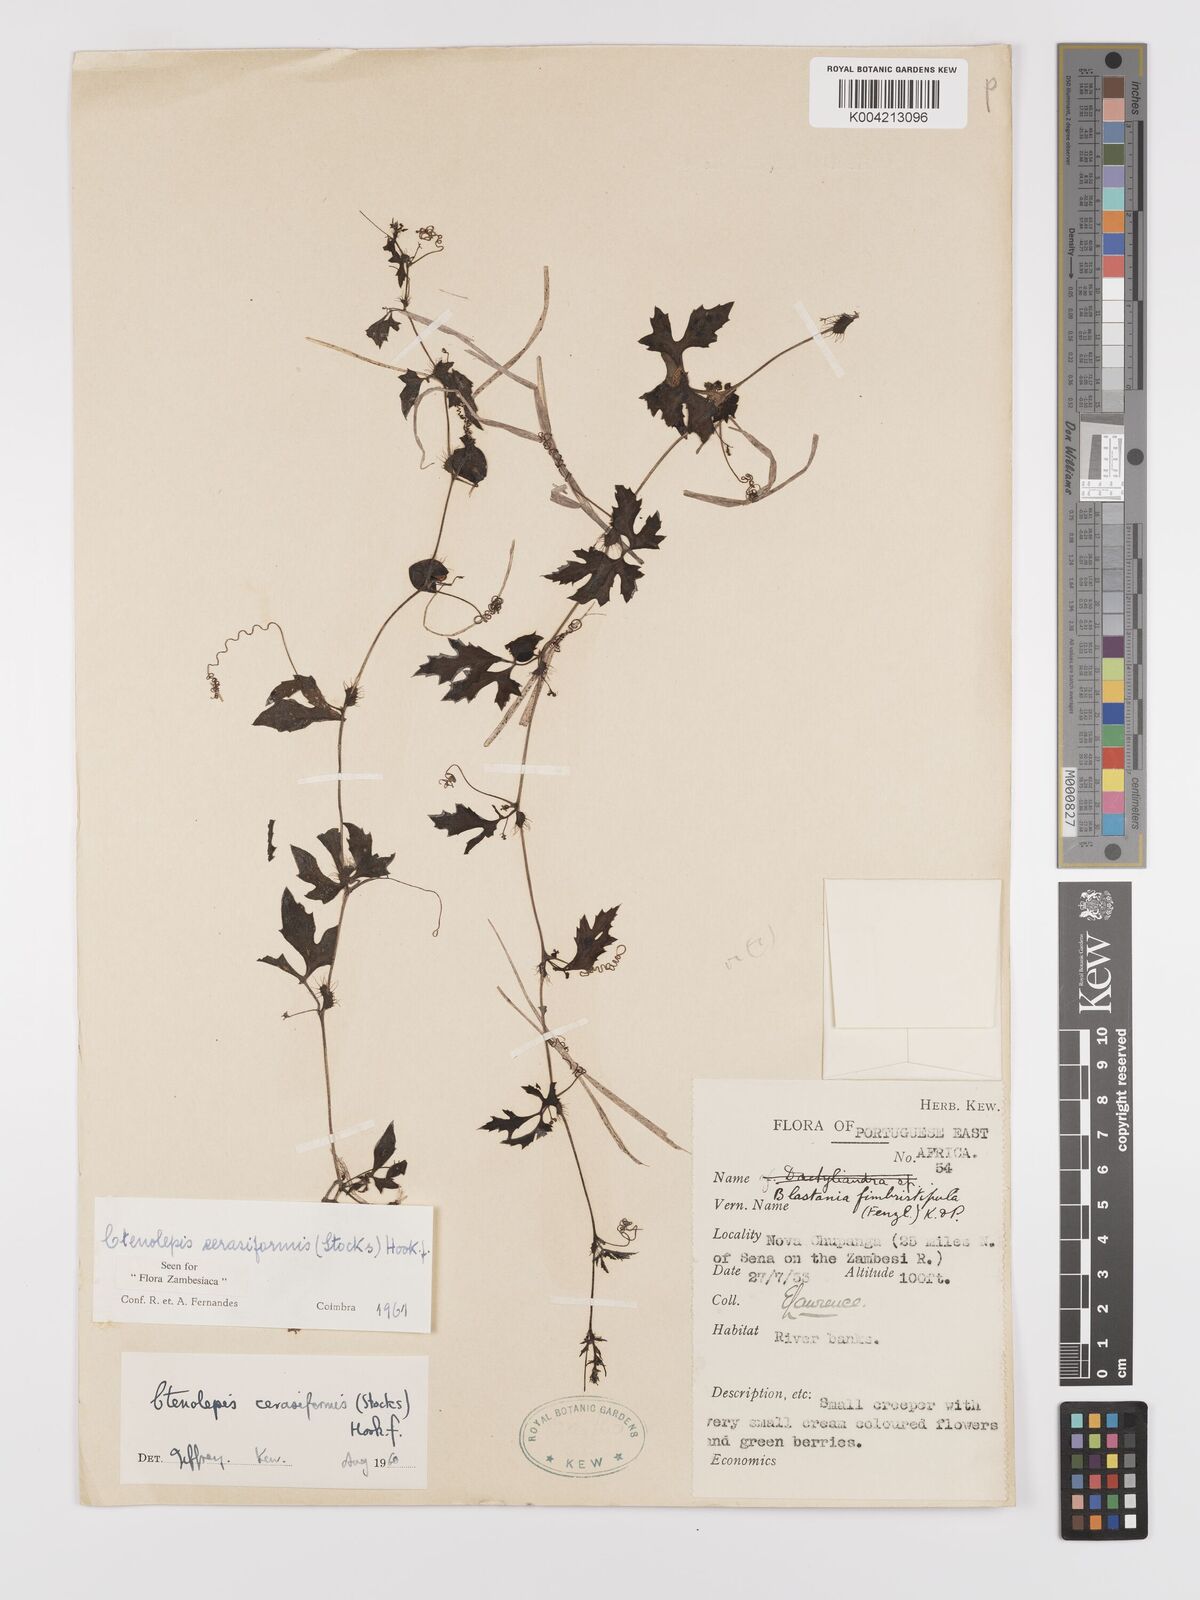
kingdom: Plantae
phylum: Tracheophyta
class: Magnoliopsida
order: Cucurbitales
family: Cucurbitaceae
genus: Blastania
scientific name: Blastania cerasiformis
